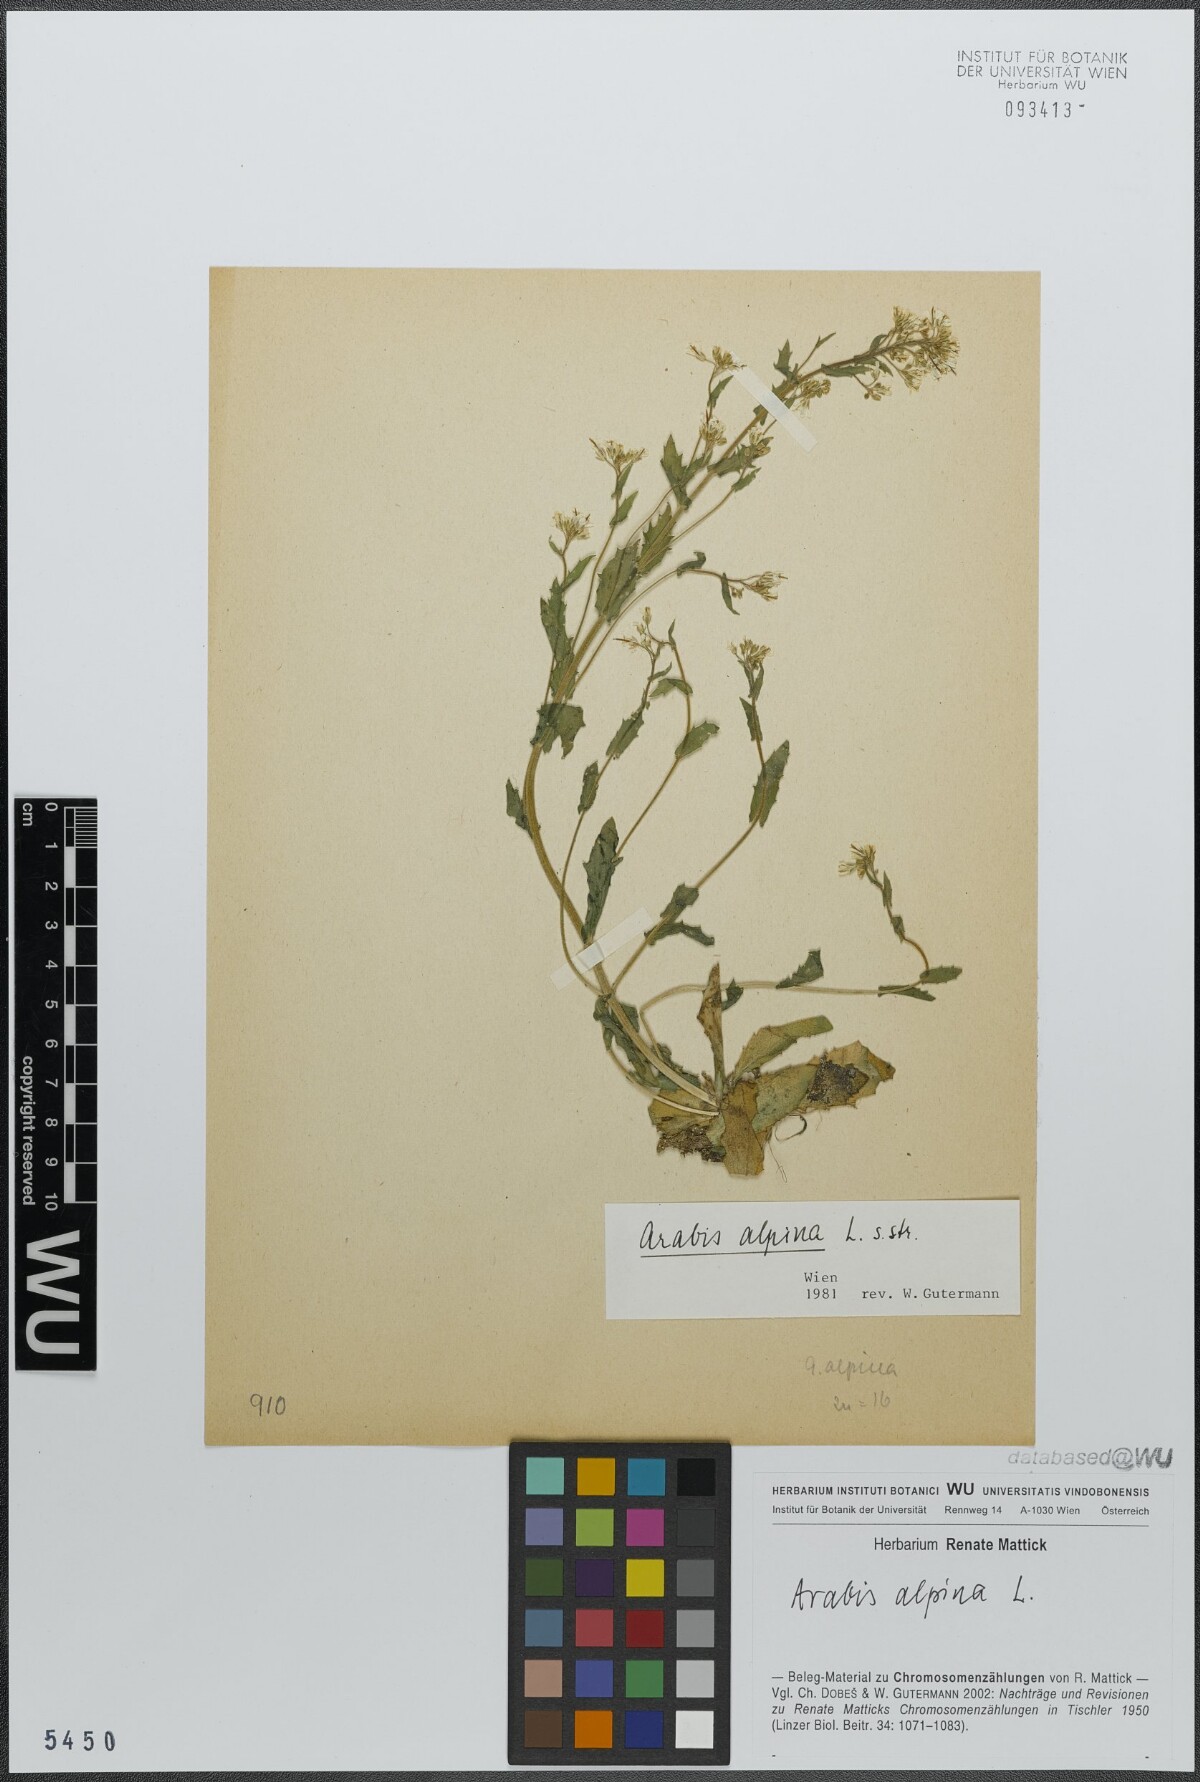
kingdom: Plantae
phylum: Tracheophyta
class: Magnoliopsida
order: Brassicales
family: Brassicaceae
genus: Arabis
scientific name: Arabis alpina
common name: Alpine rock-cress
